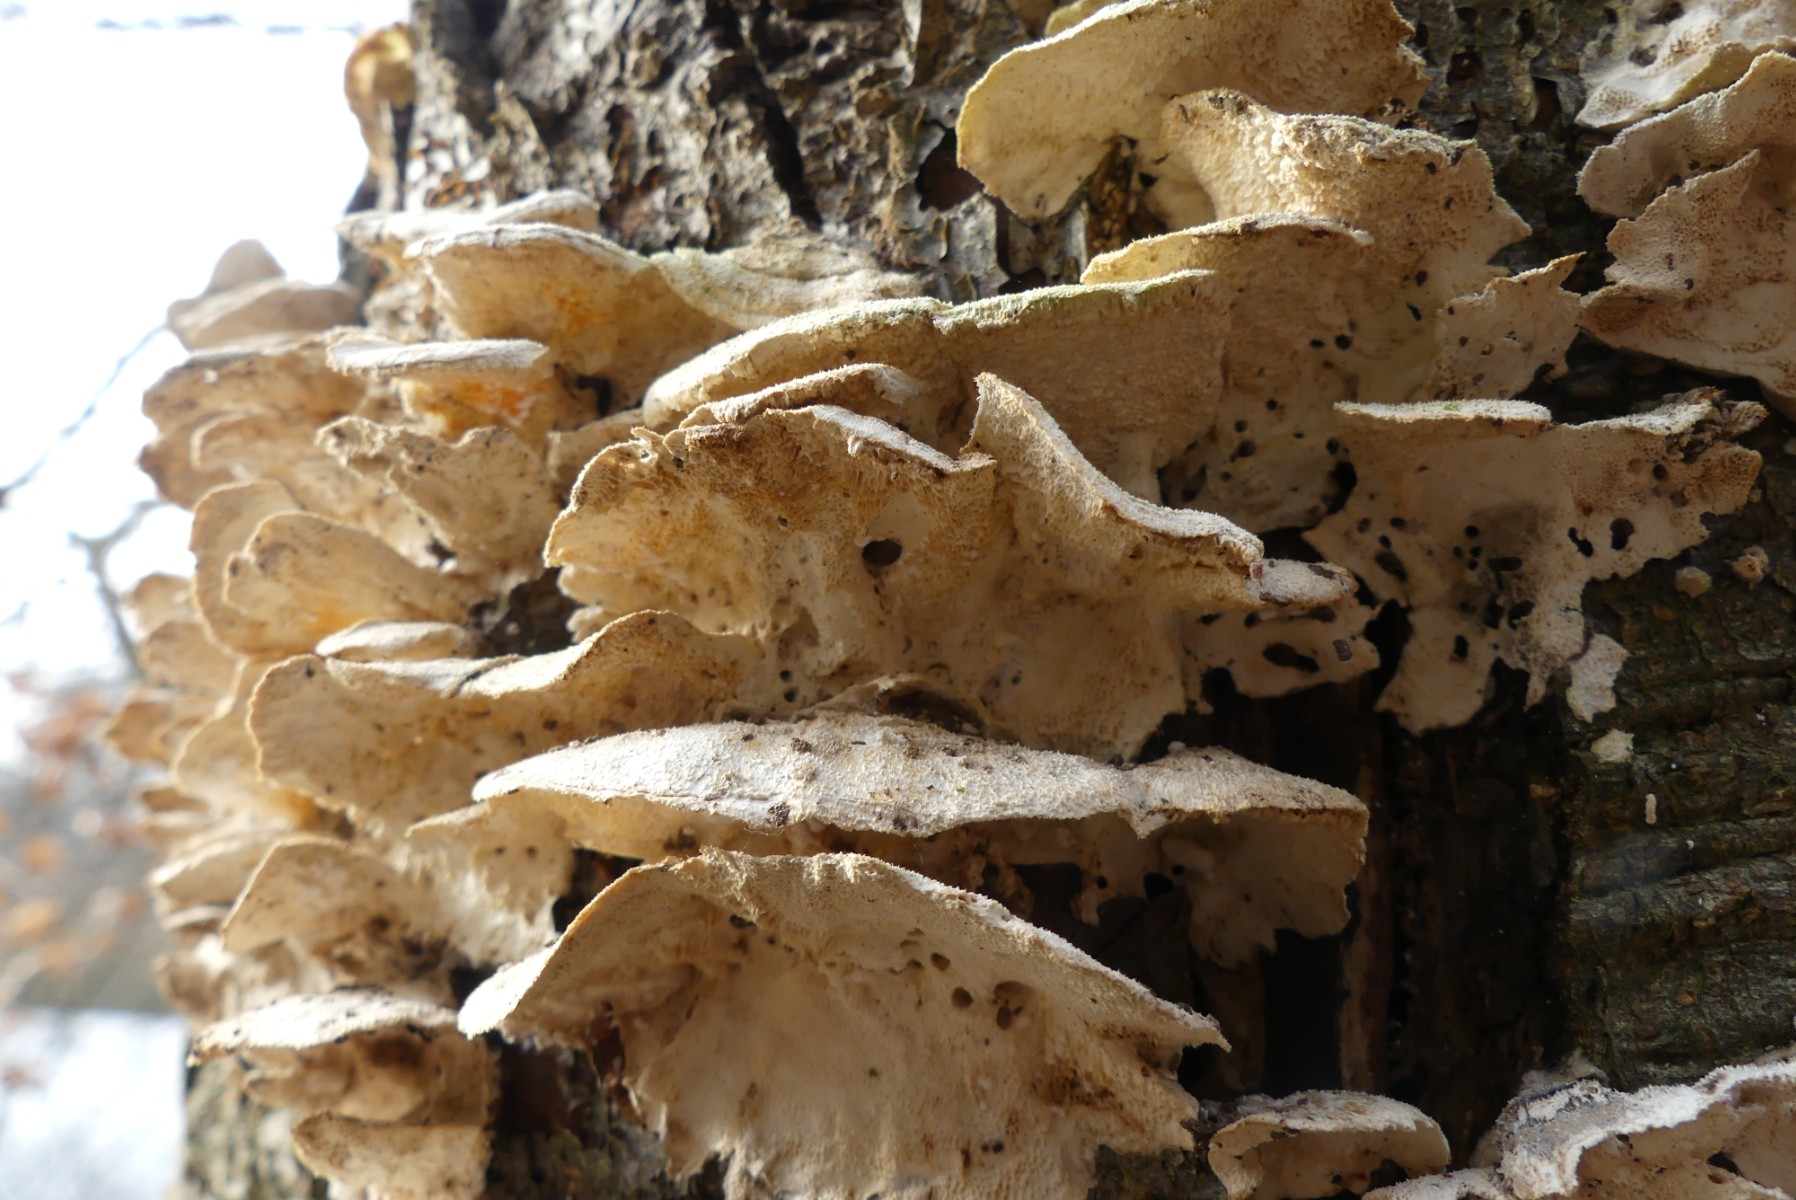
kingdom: Fungi
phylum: Basidiomycota
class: Agaricomycetes
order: Polyporales
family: Polyporaceae
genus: Trametes
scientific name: Trametes
